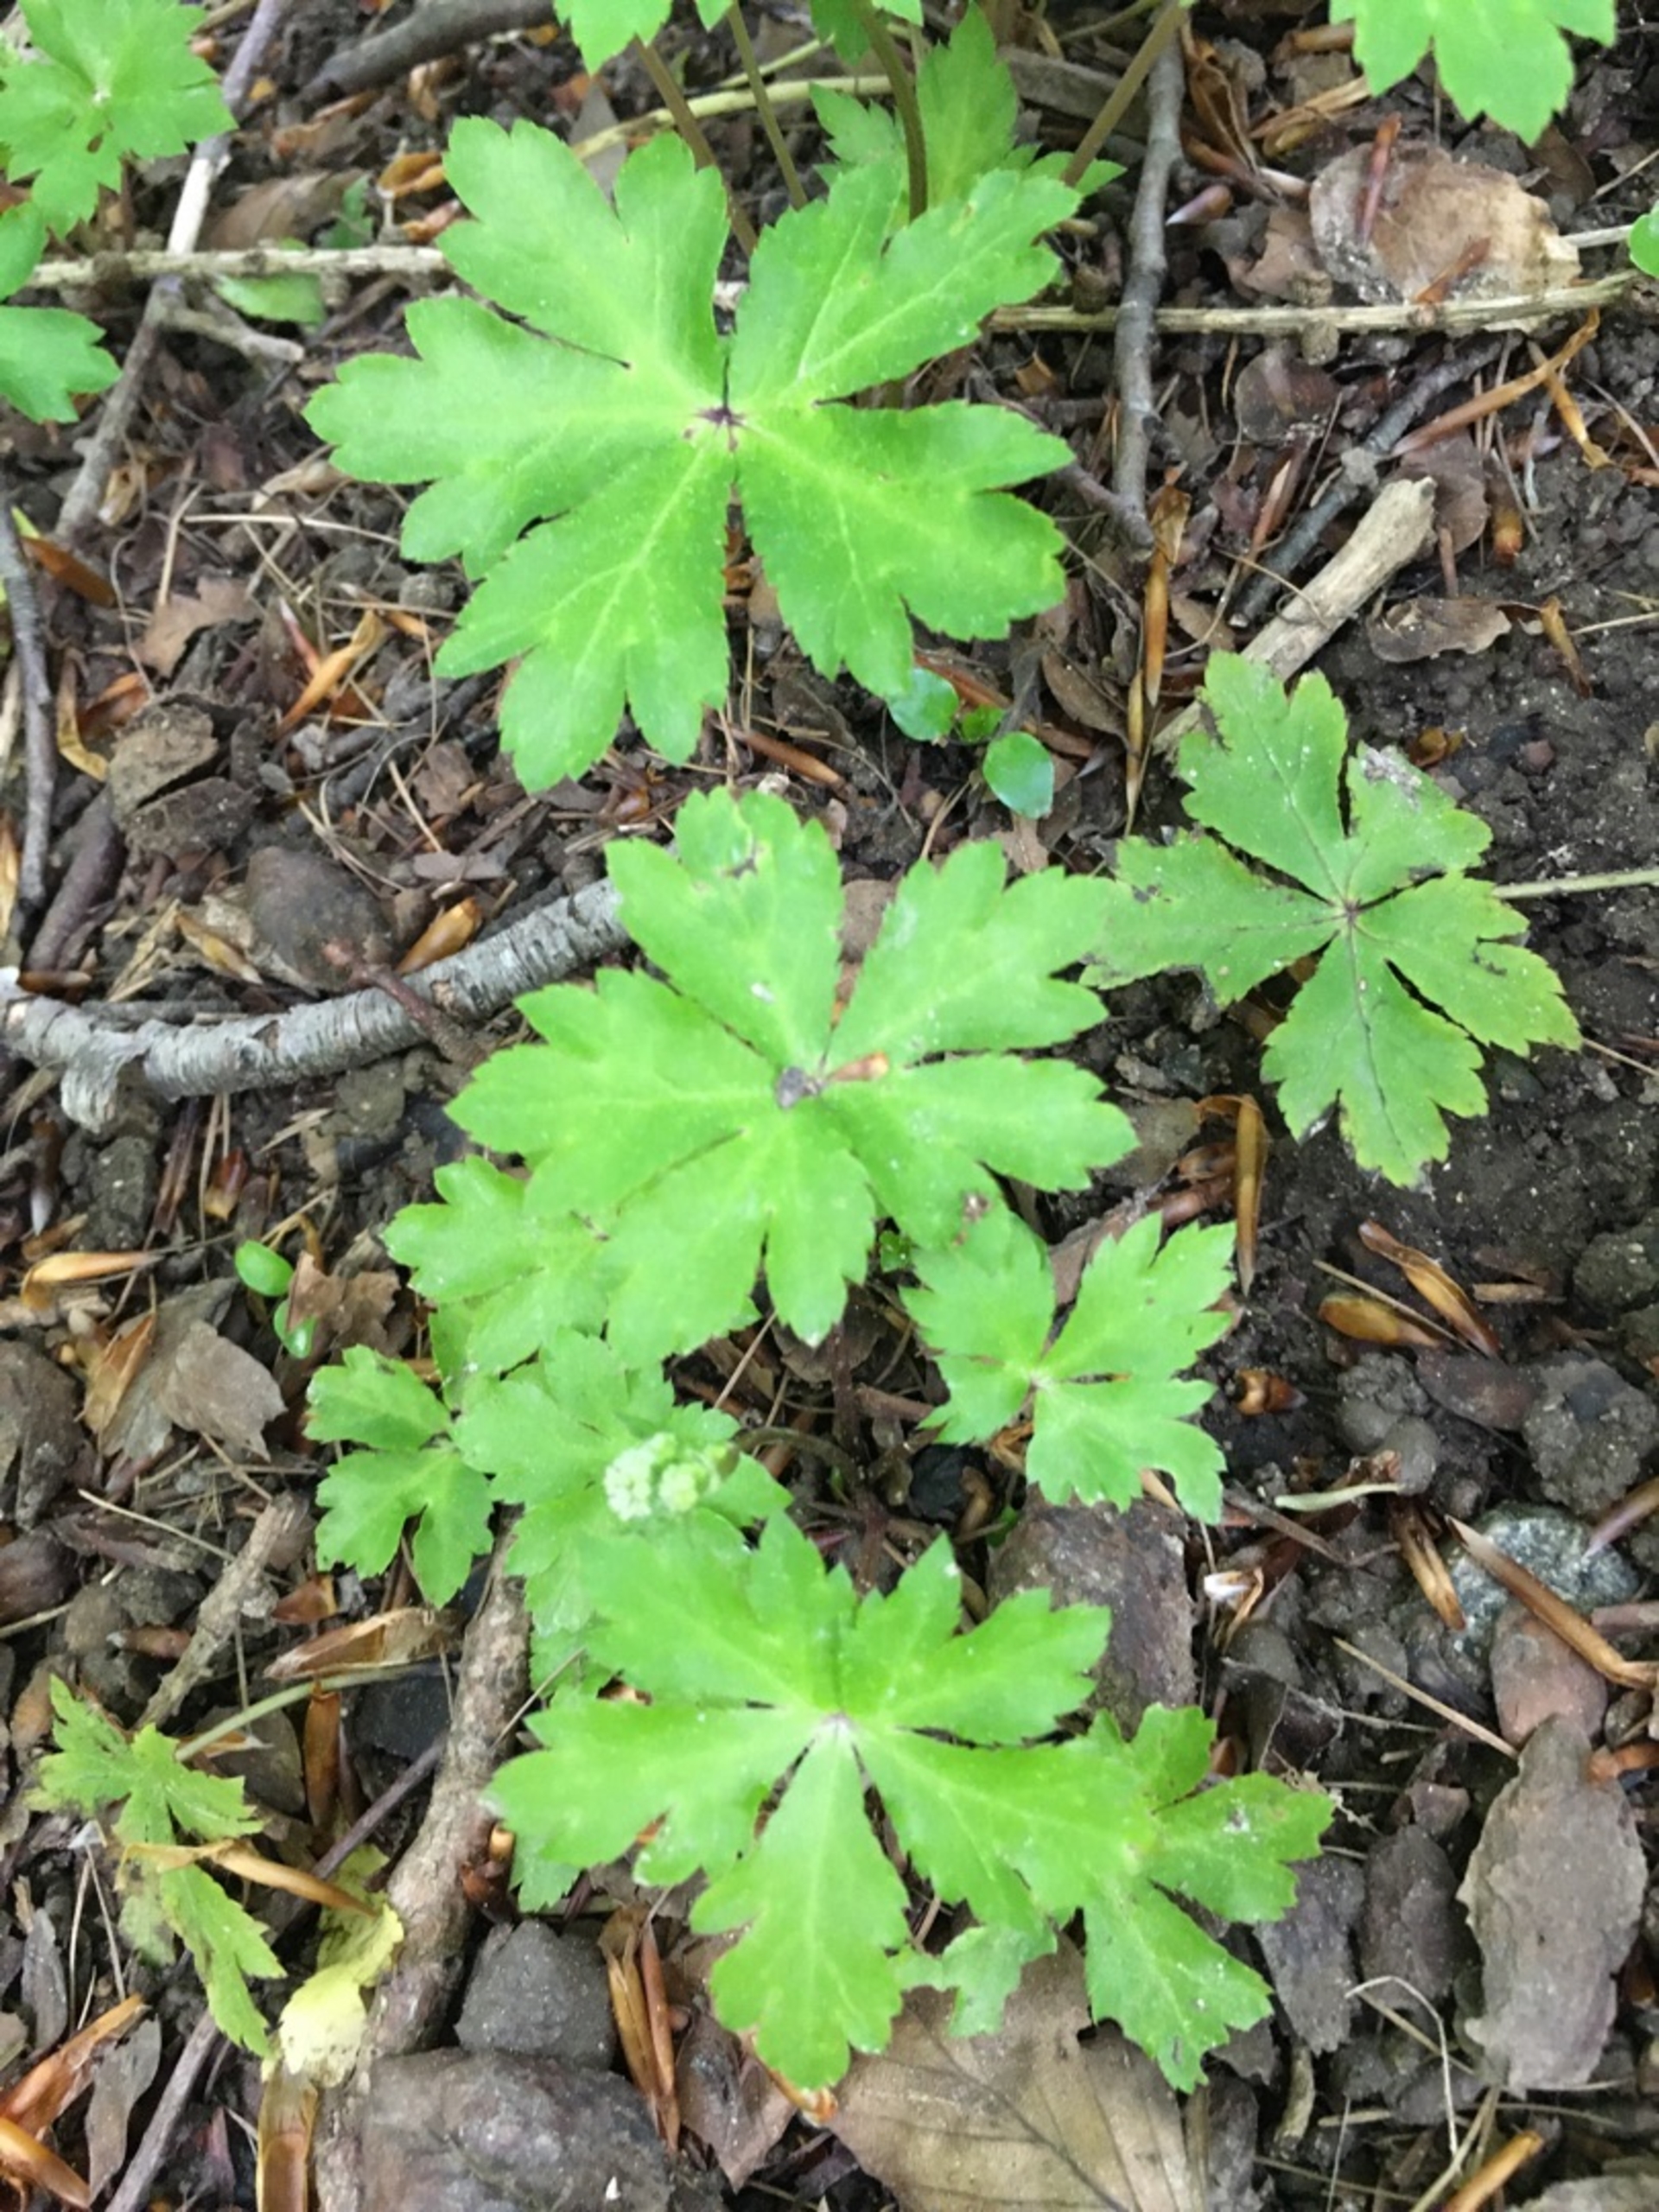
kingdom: Plantae
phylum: Tracheophyta
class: Magnoliopsida
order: Apiales
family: Apiaceae
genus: Sanicula
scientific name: Sanicula europaea
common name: Sanikel
